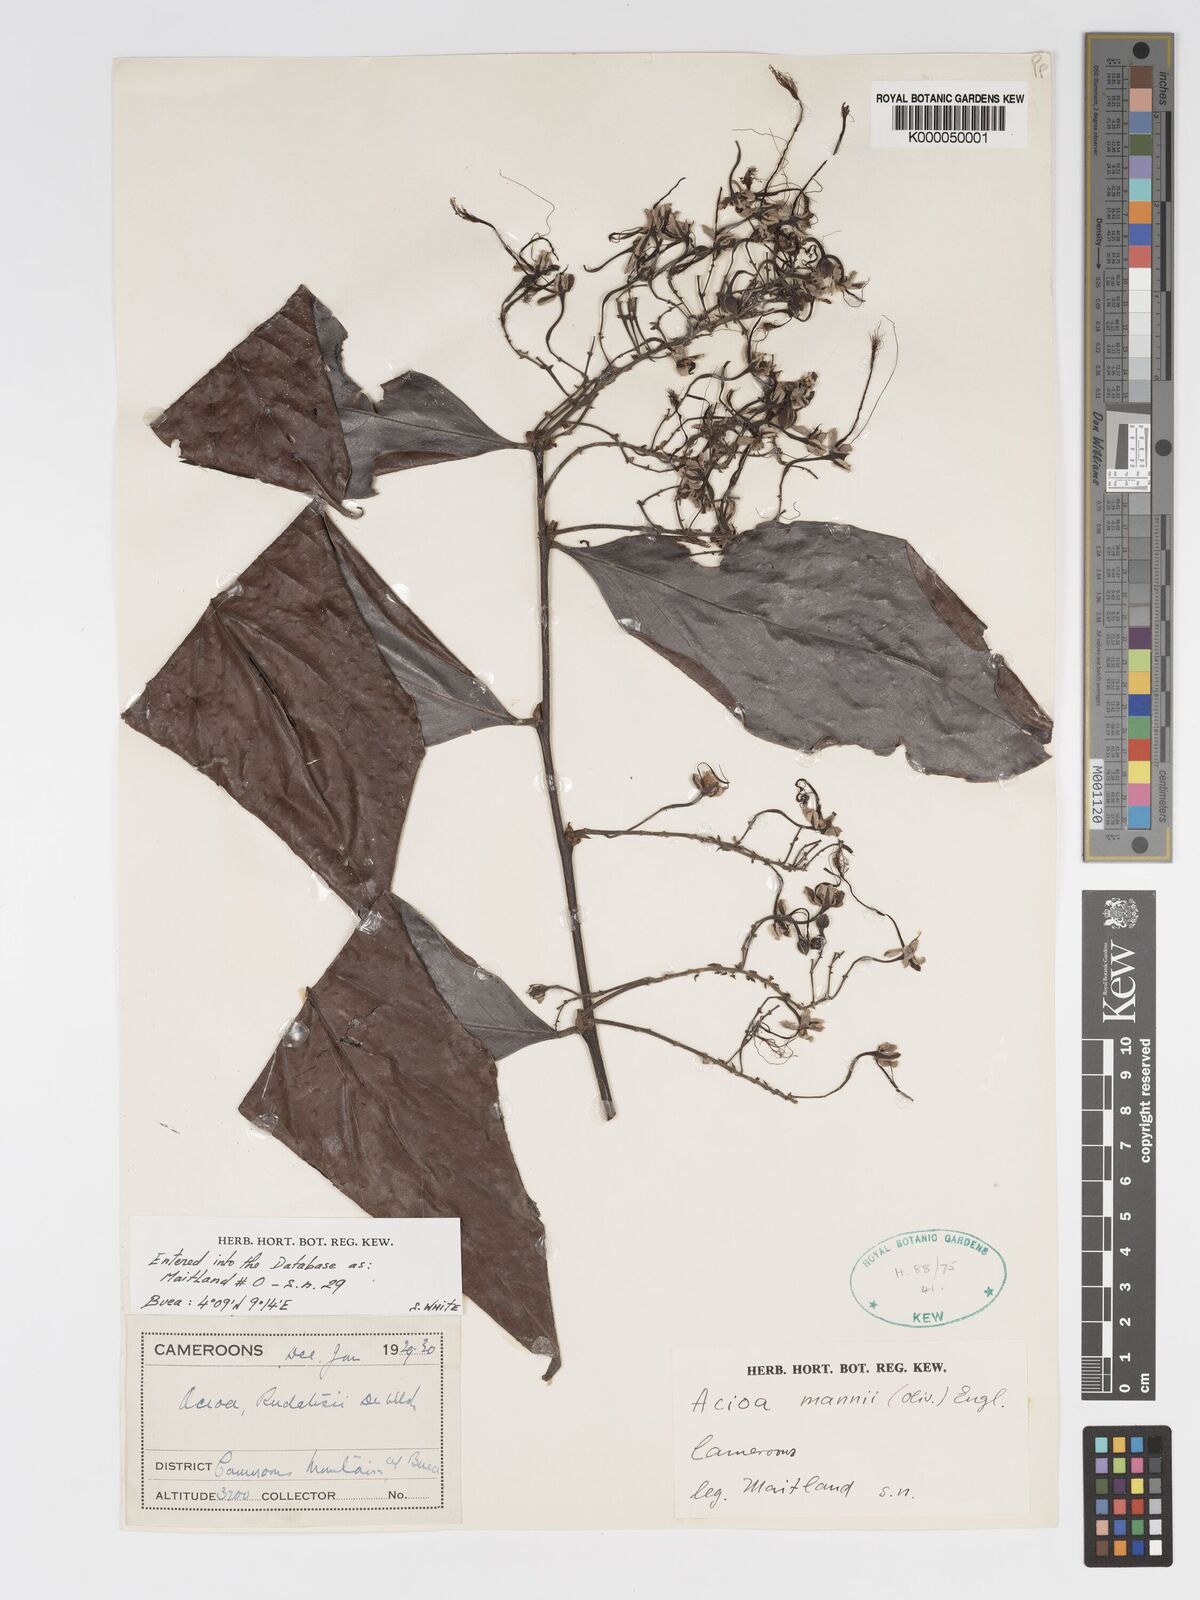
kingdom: Plantae
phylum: Tracheophyta
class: Magnoliopsida
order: Malpighiales
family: Chrysobalanaceae
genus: Dactyladenia
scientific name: Dactyladenia mannii
